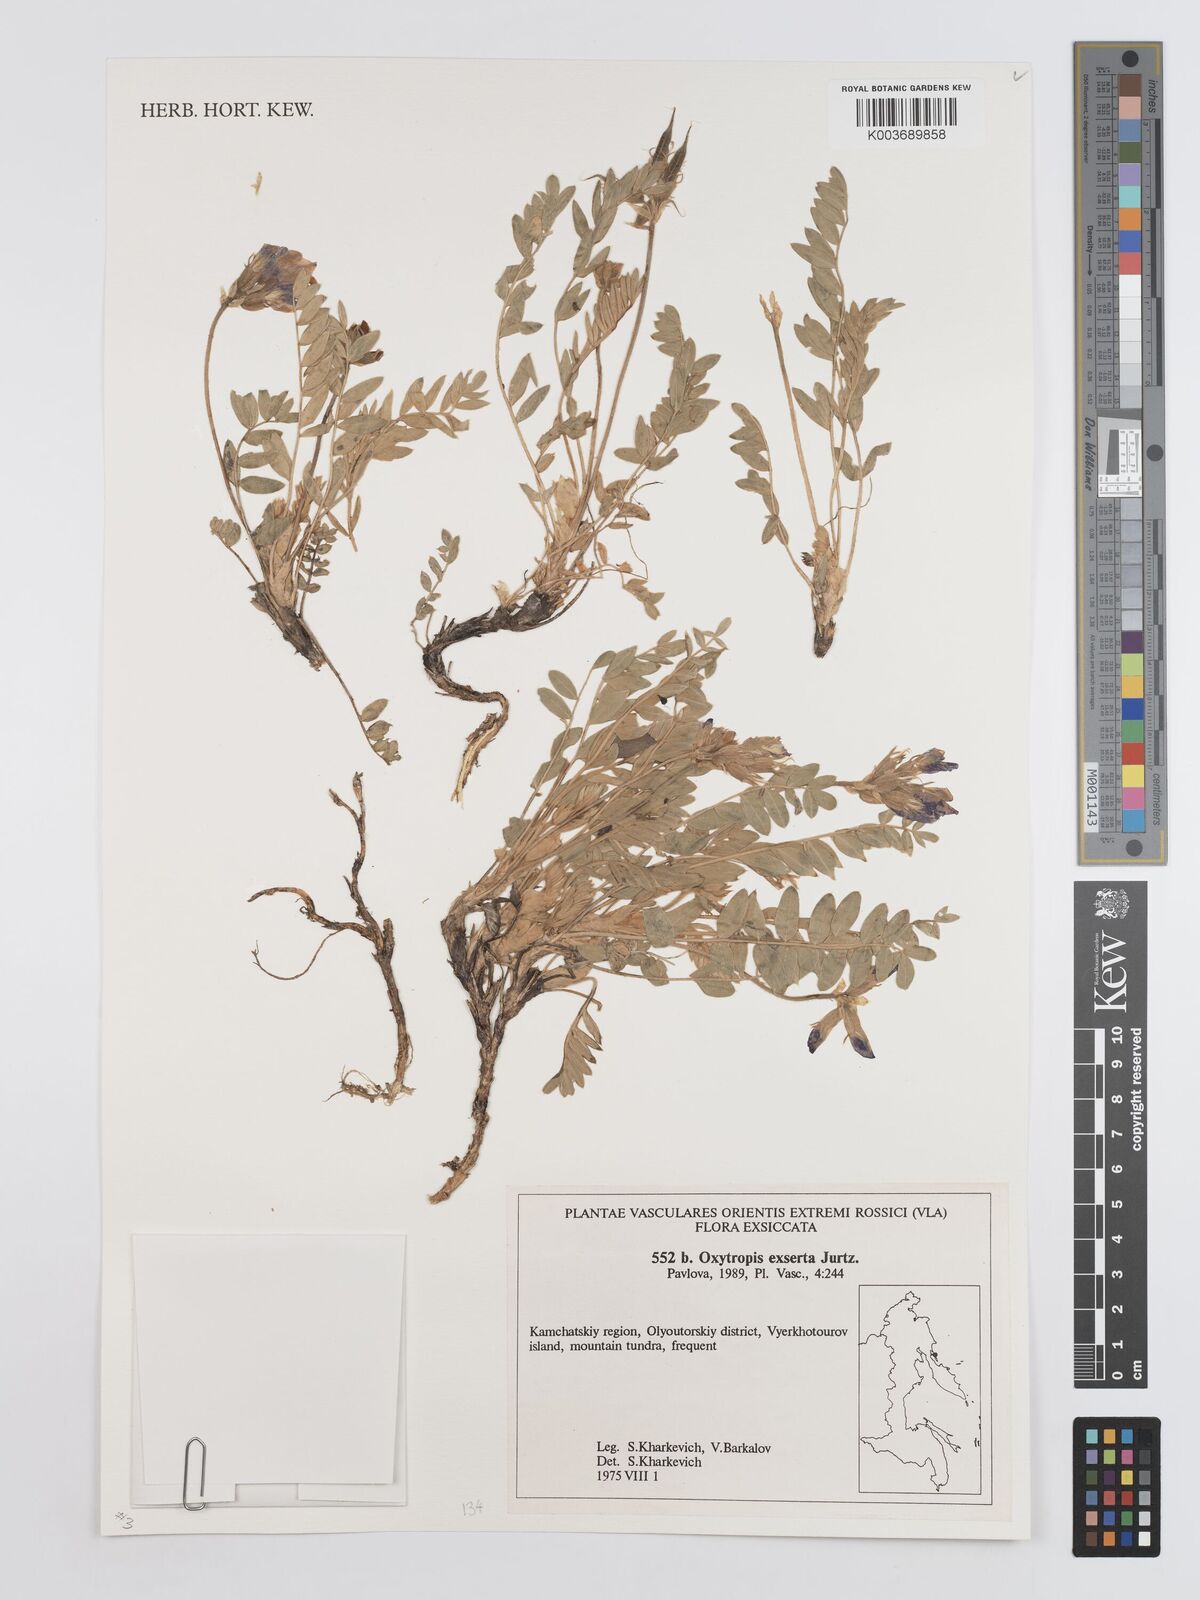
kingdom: Plantae
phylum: Tracheophyta
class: Magnoliopsida
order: Fabales
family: Fabaceae
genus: Oxytropis
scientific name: Oxytropis exserta
